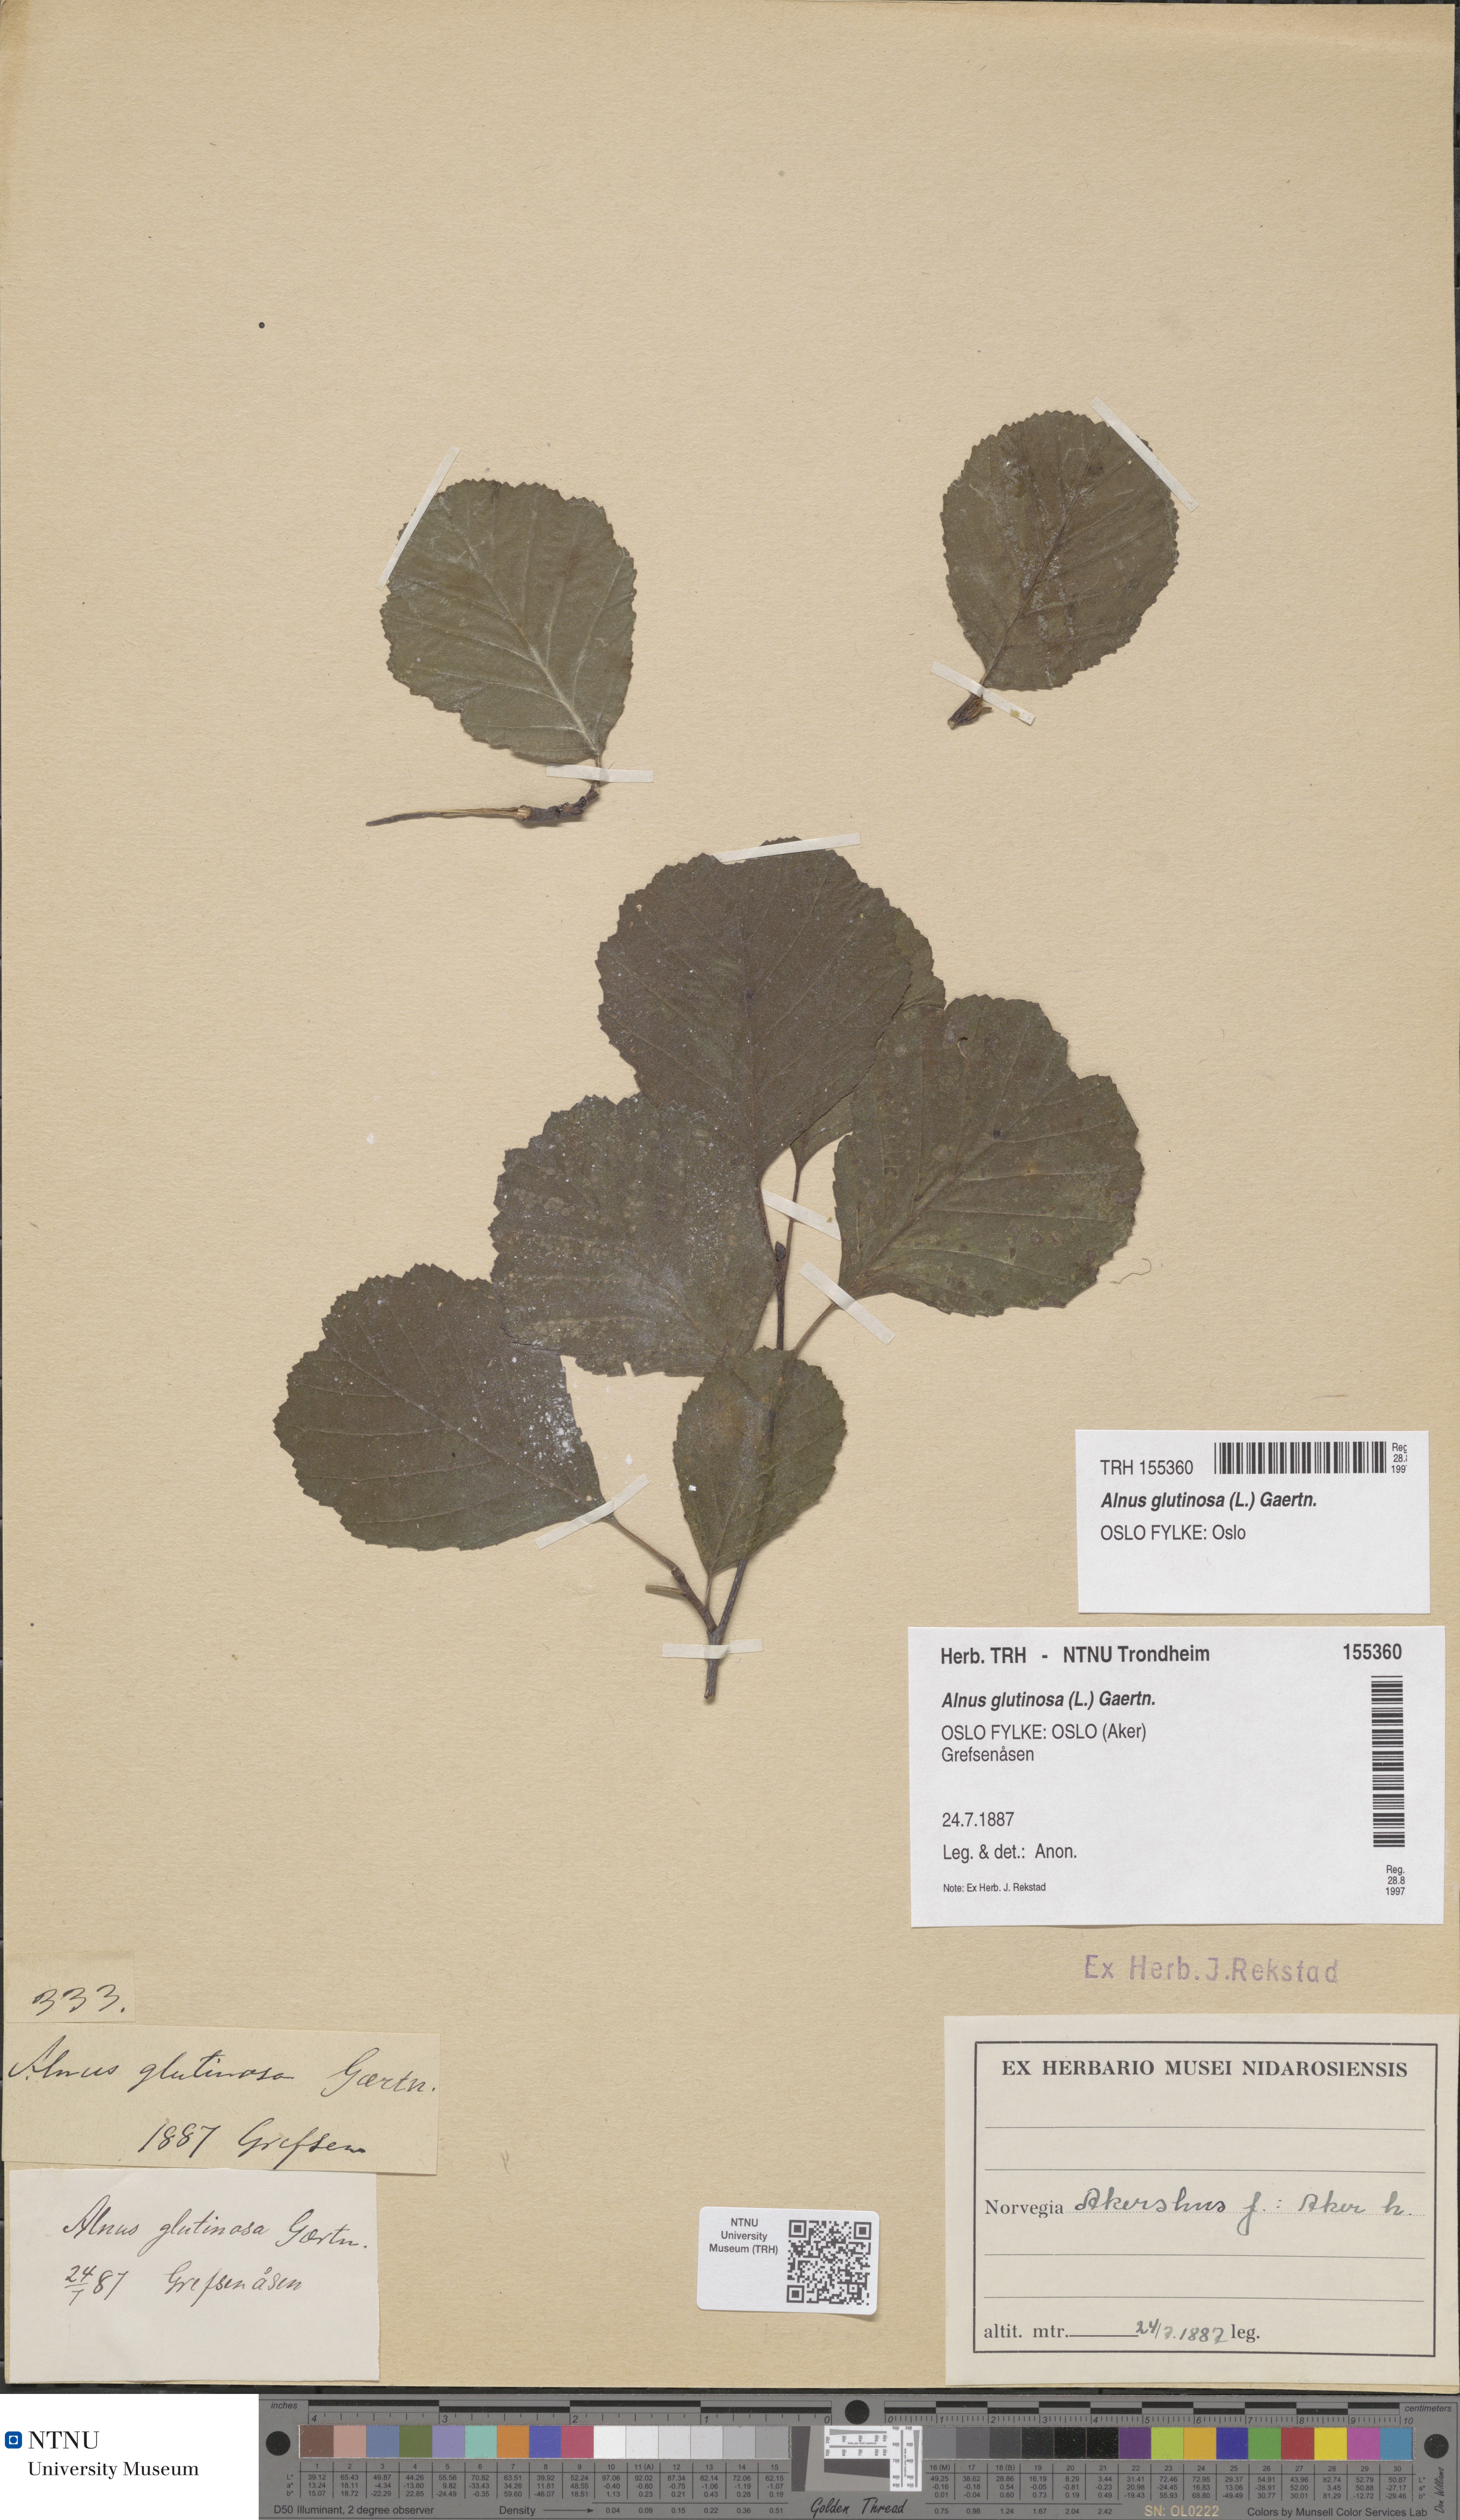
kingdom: Plantae
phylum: Tracheophyta
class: Magnoliopsida
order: Fagales
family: Betulaceae
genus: Alnus
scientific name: Alnus glutinosa
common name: Black alder
